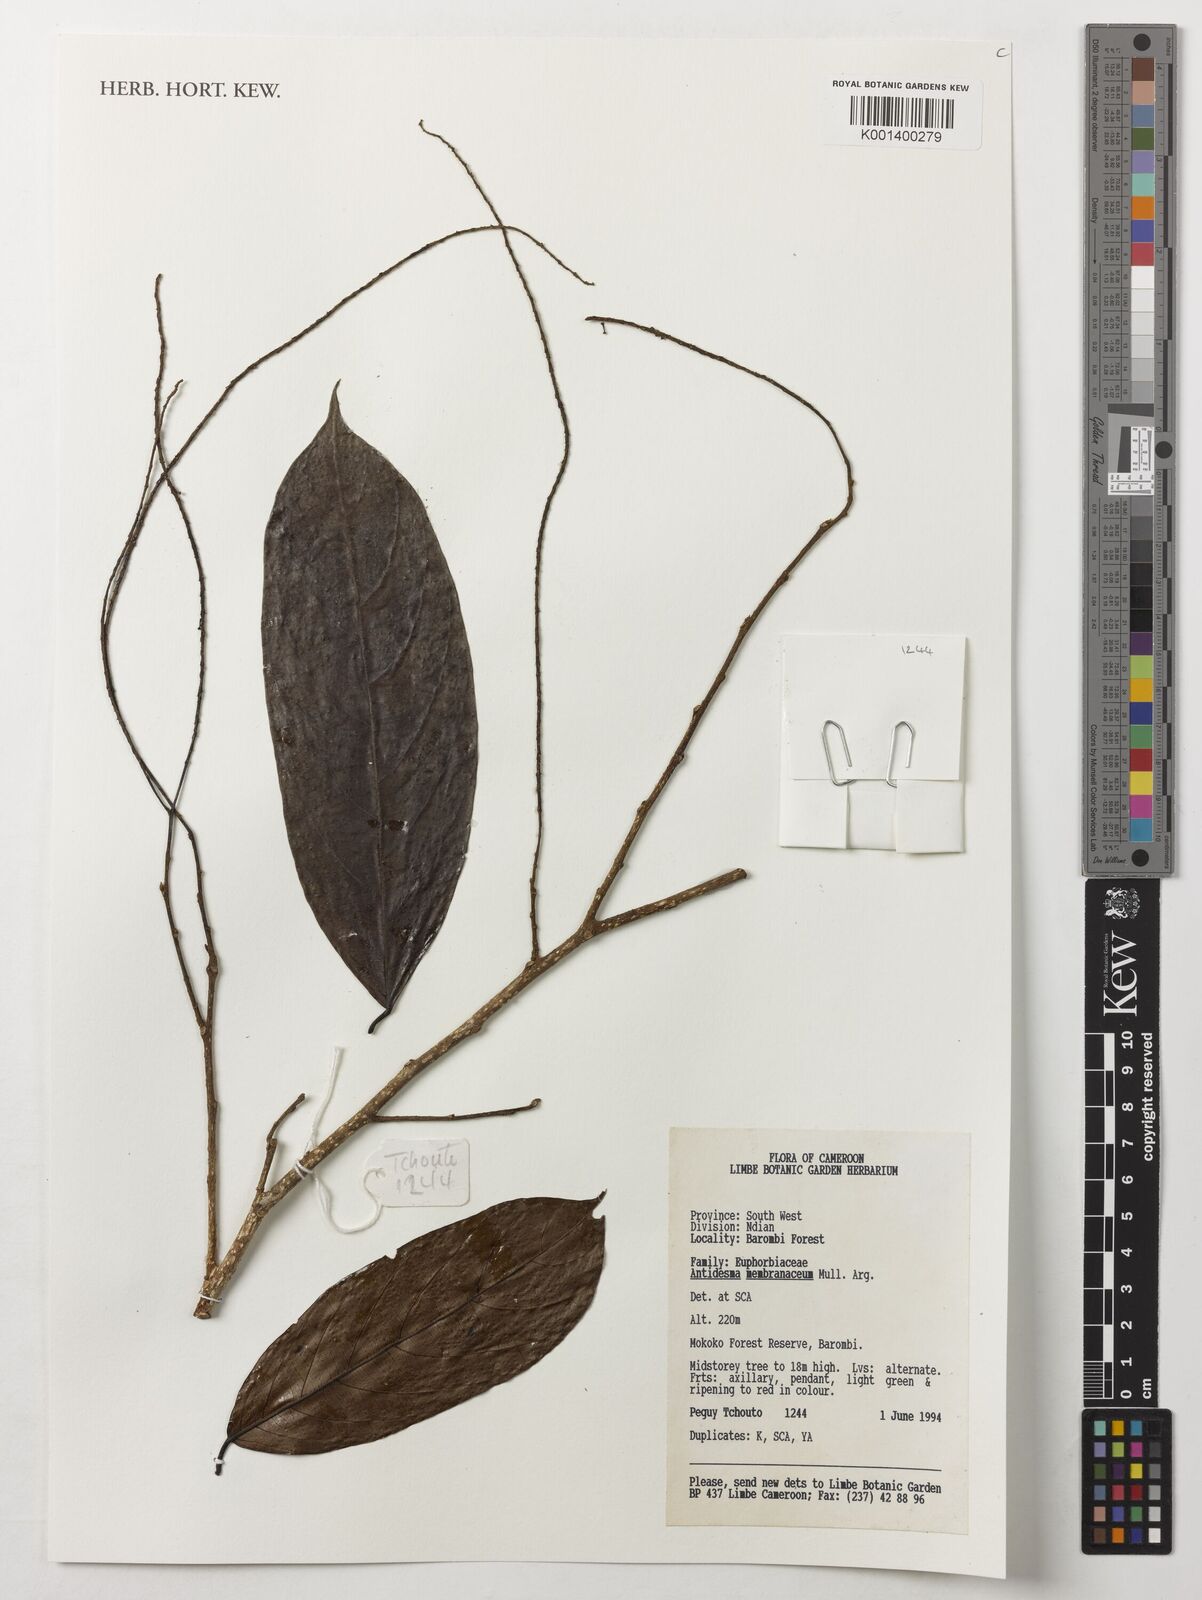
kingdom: Plantae
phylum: Tracheophyta
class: Magnoliopsida
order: Malpighiales
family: Phyllanthaceae
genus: Antidesma
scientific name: Antidesma membranaceum
